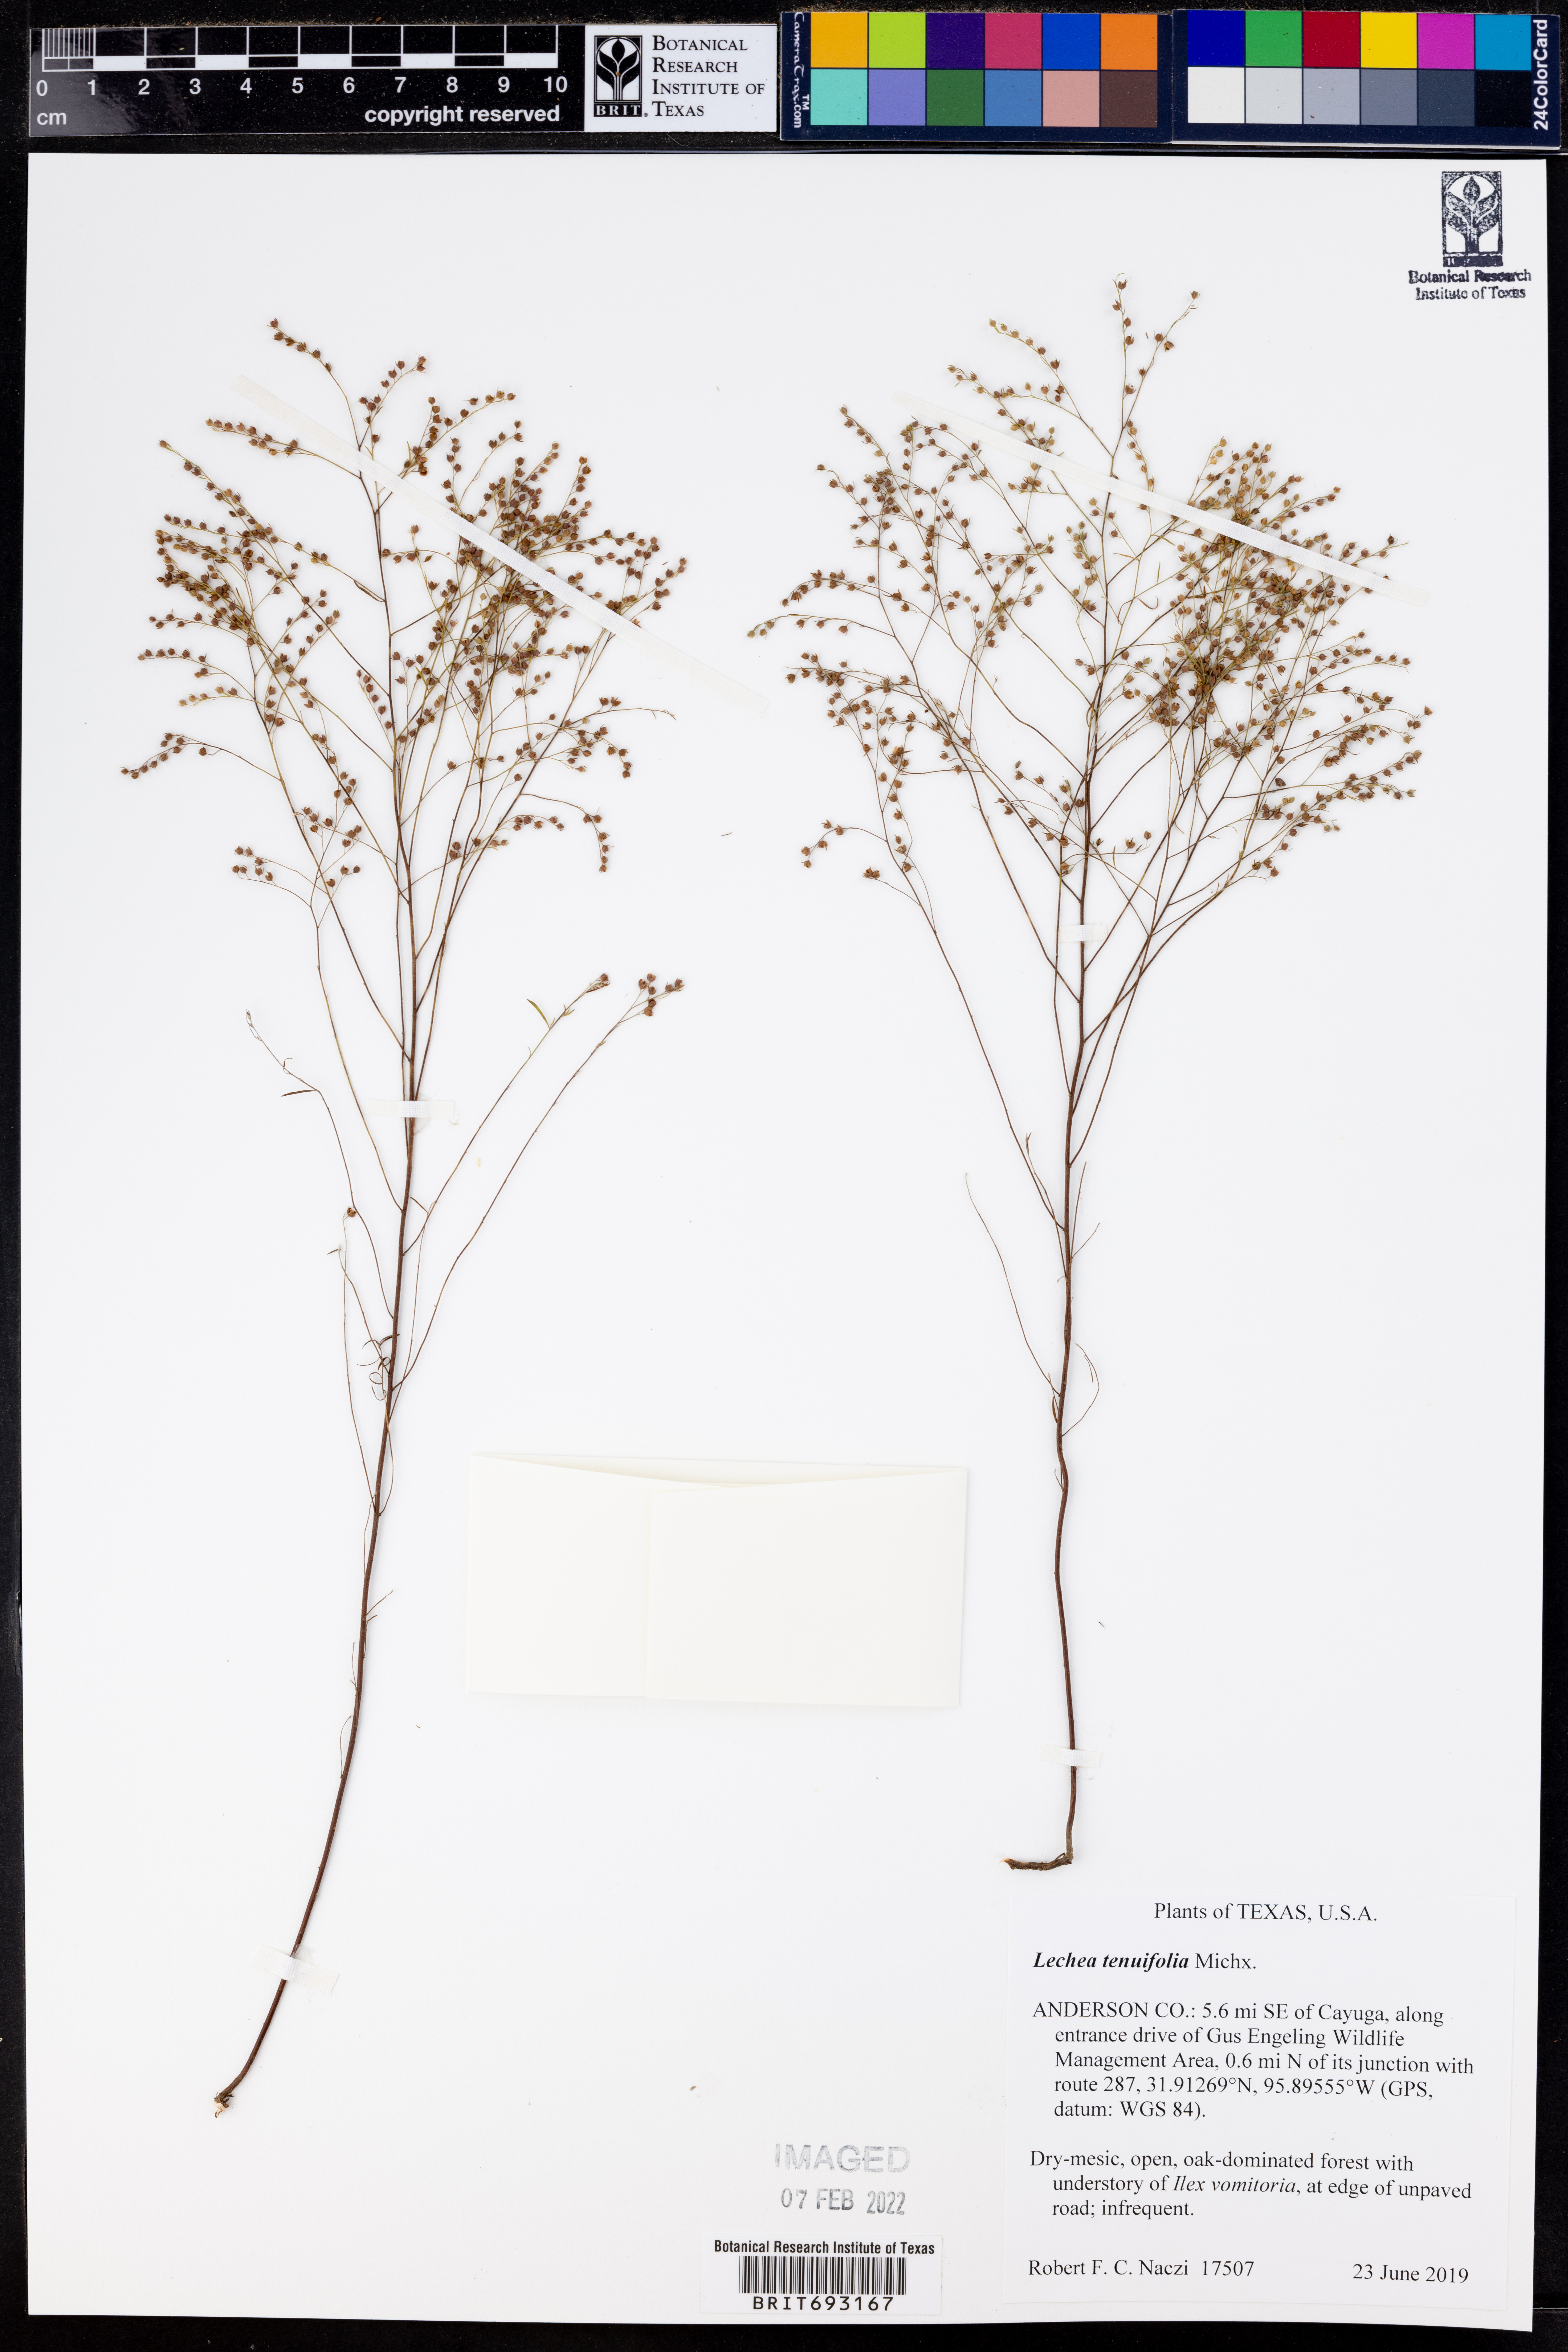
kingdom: Plantae
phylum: Tracheophyta
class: Magnoliopsida
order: Malvales
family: Cistaceae
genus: Lechea
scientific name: Lechea tenuifolia
